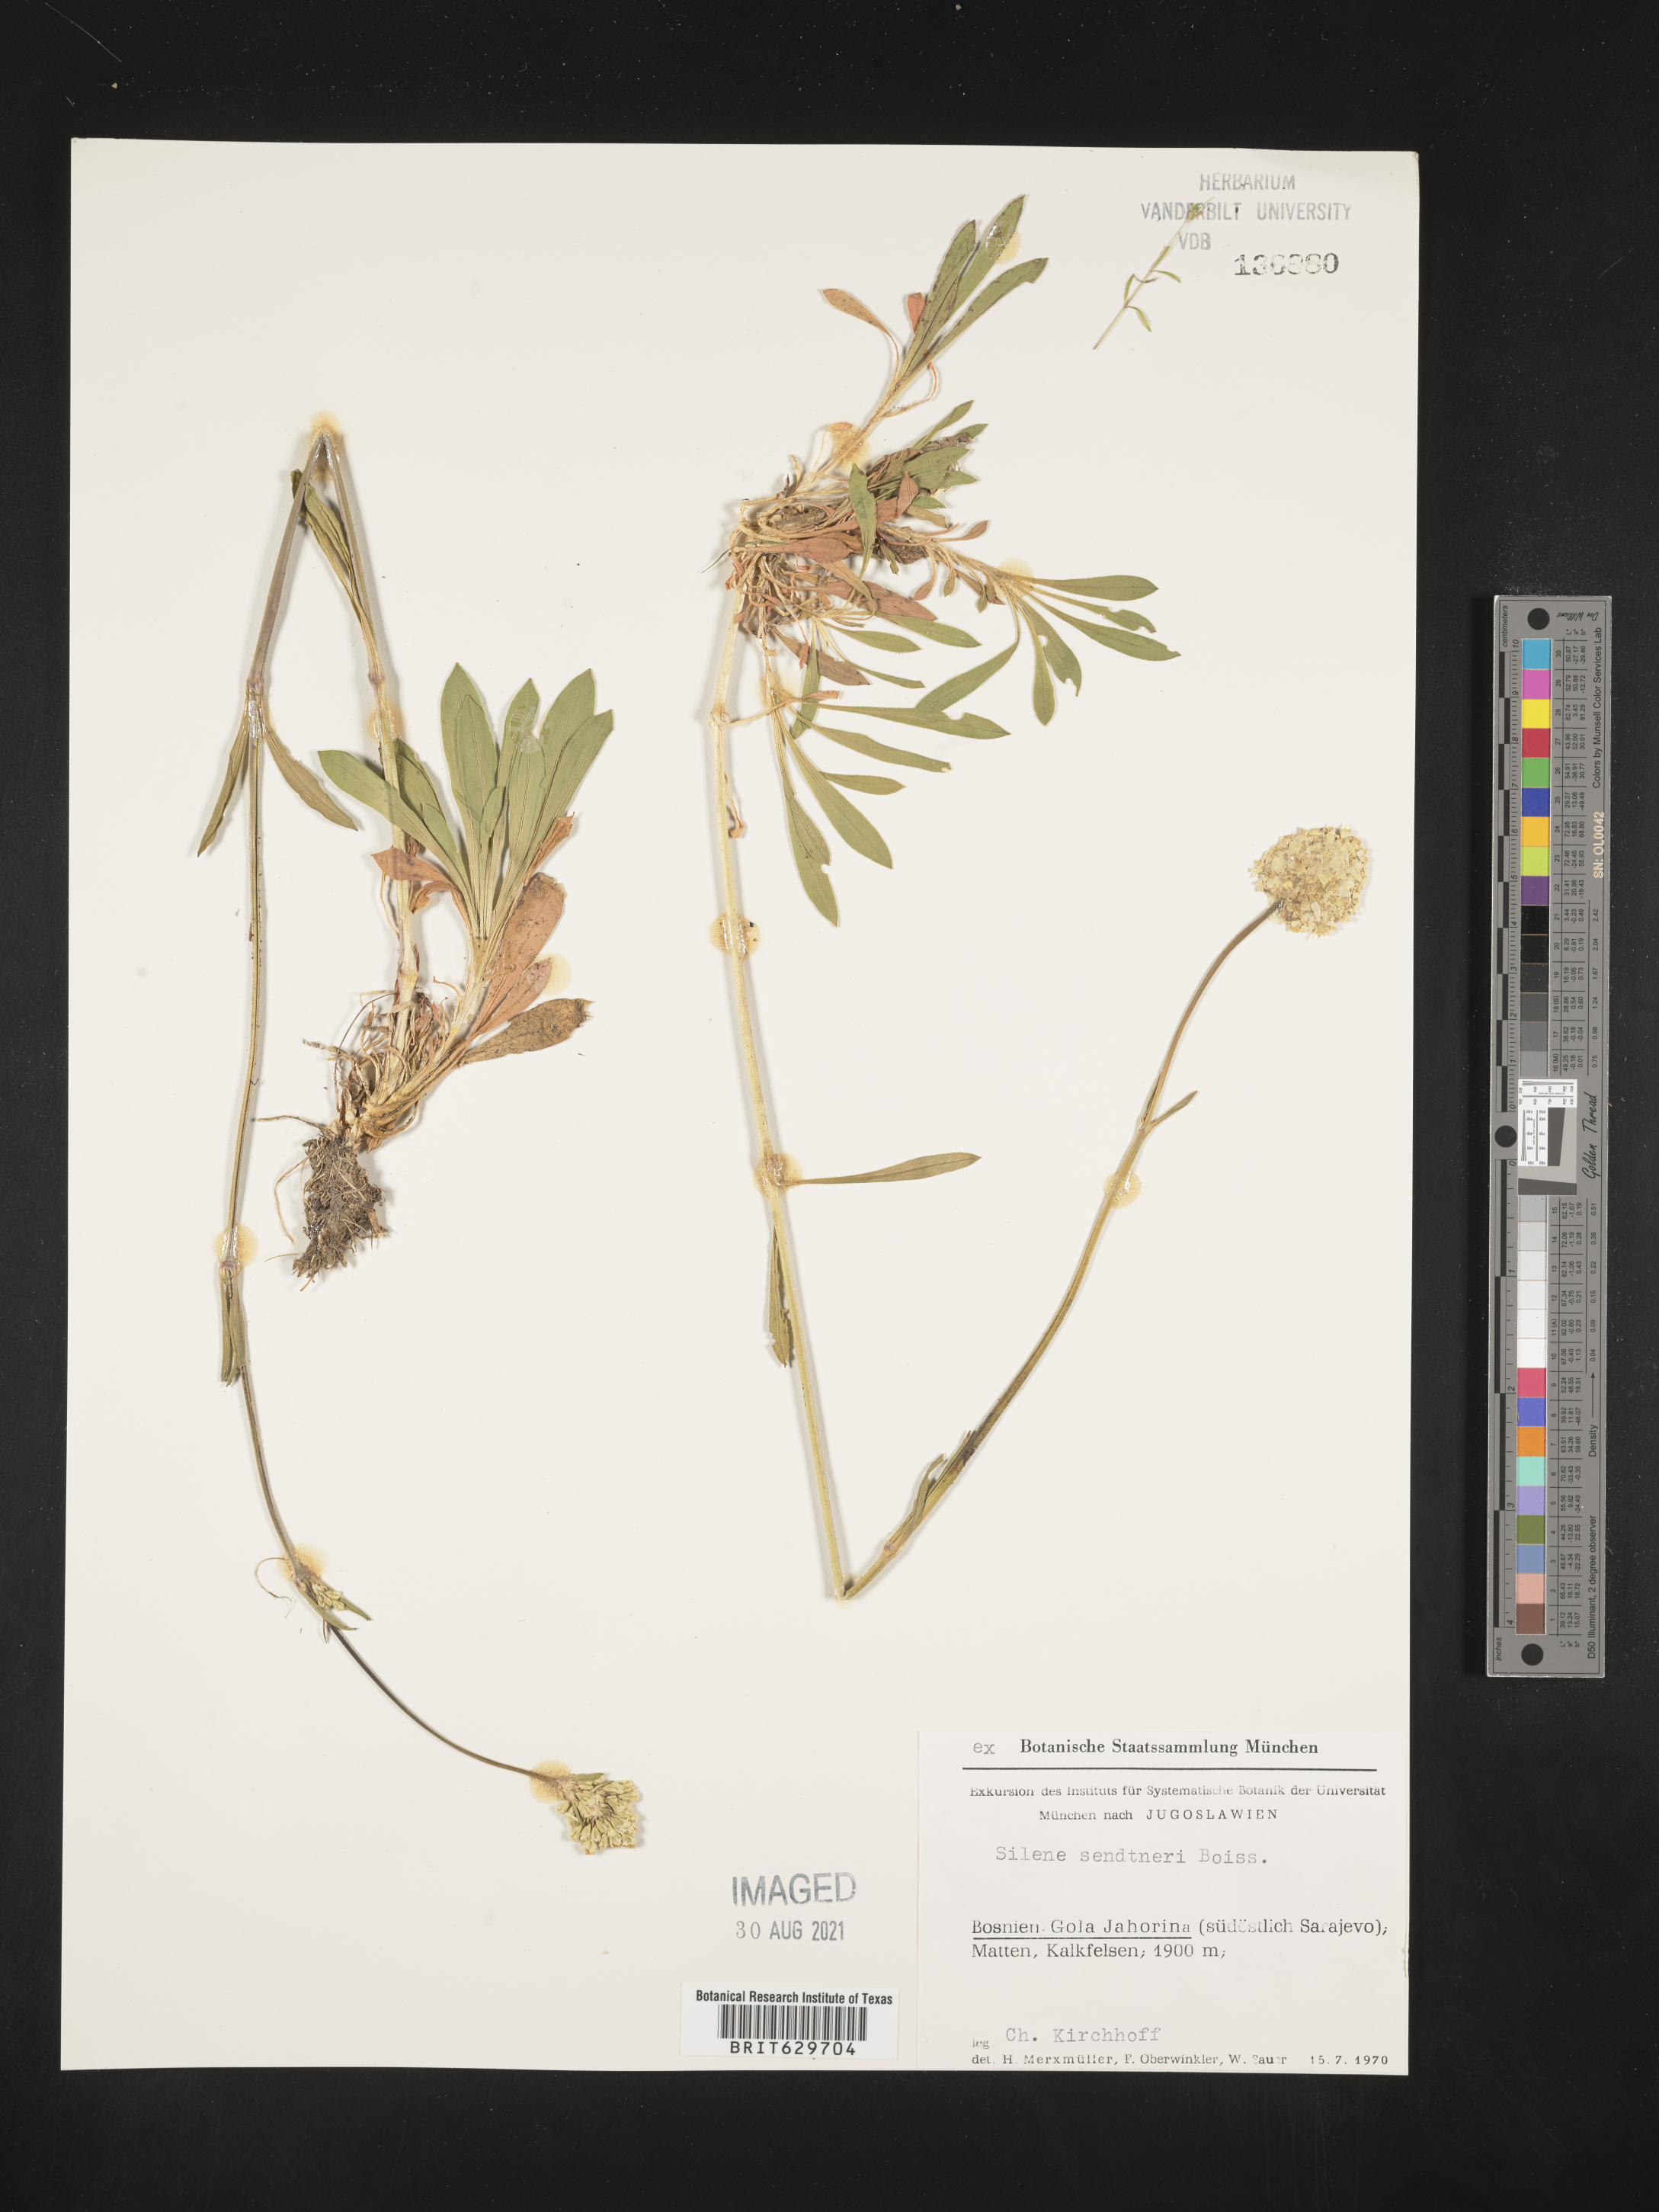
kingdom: Plantae
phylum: Tracheophyta
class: Magnoliopsida
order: Caryophyllales
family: Caryophyllaceae
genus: Silene
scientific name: Silene sendtneri
